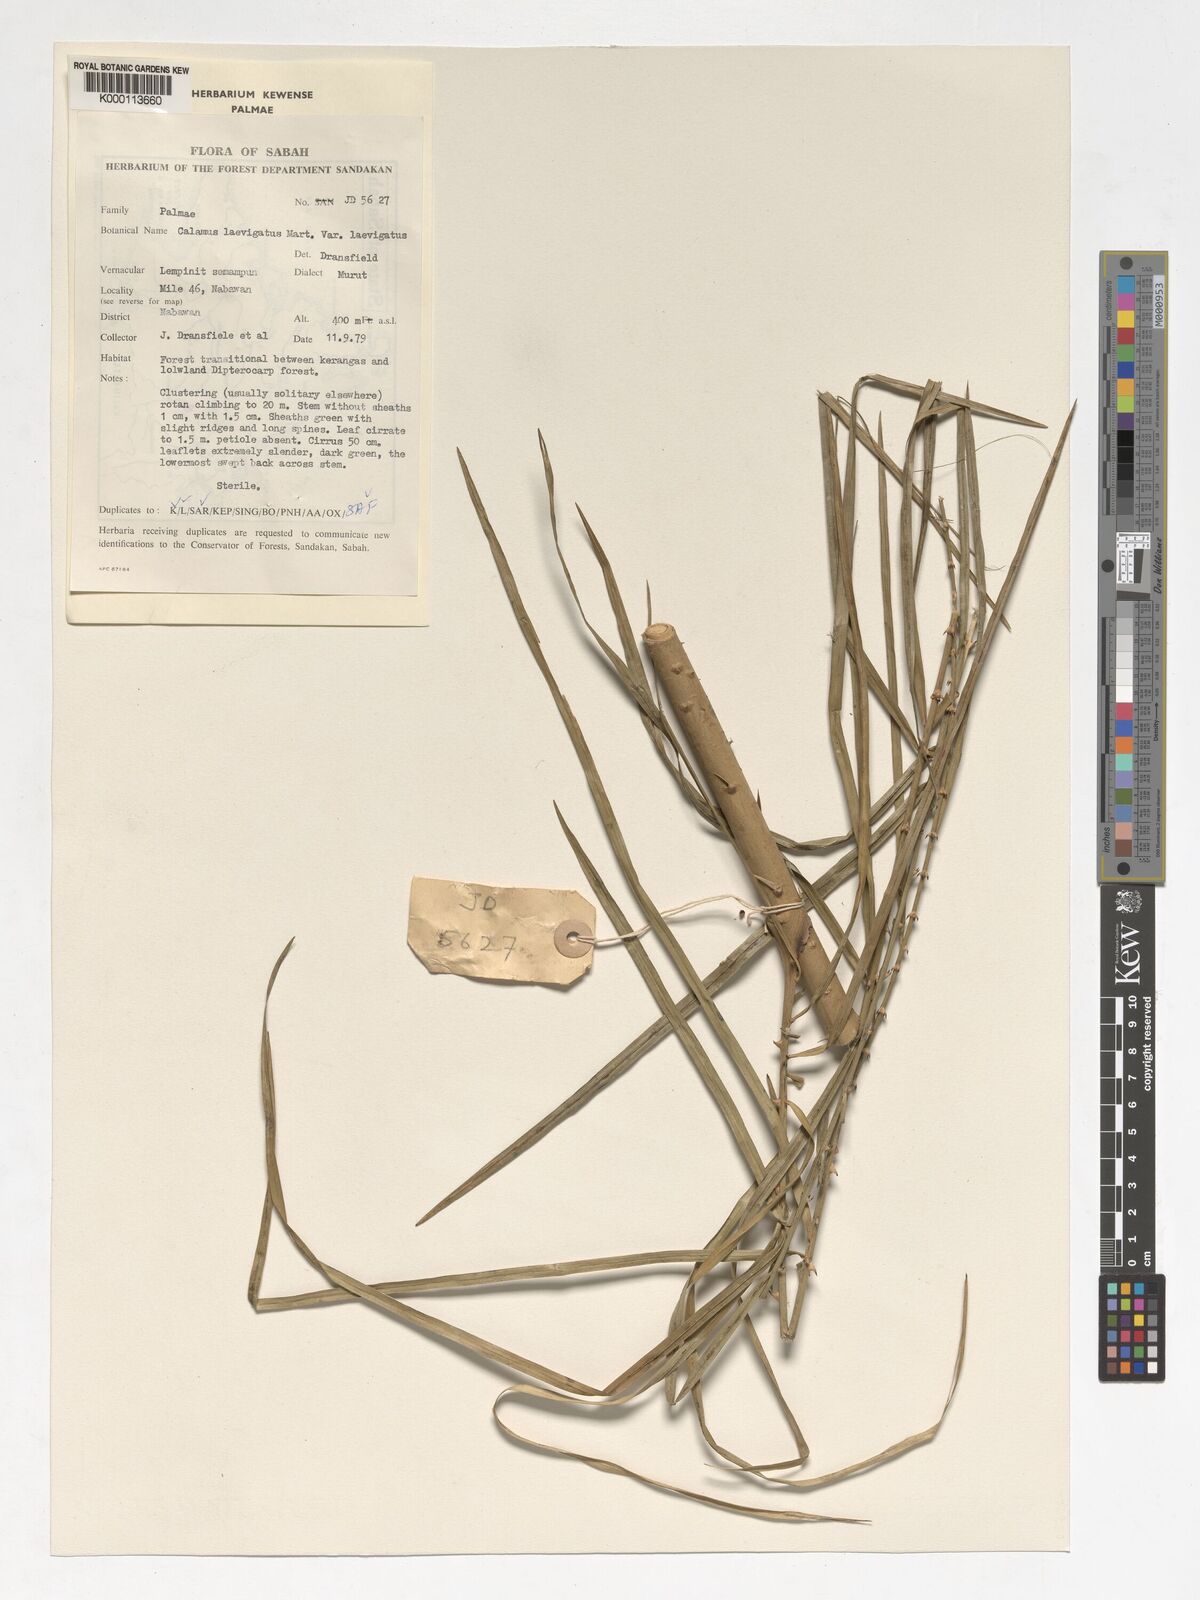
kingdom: Plantae
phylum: Tracheophyta
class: Liliopsida
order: Arecales
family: Arecaceae
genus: Calamus
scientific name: Calamus
